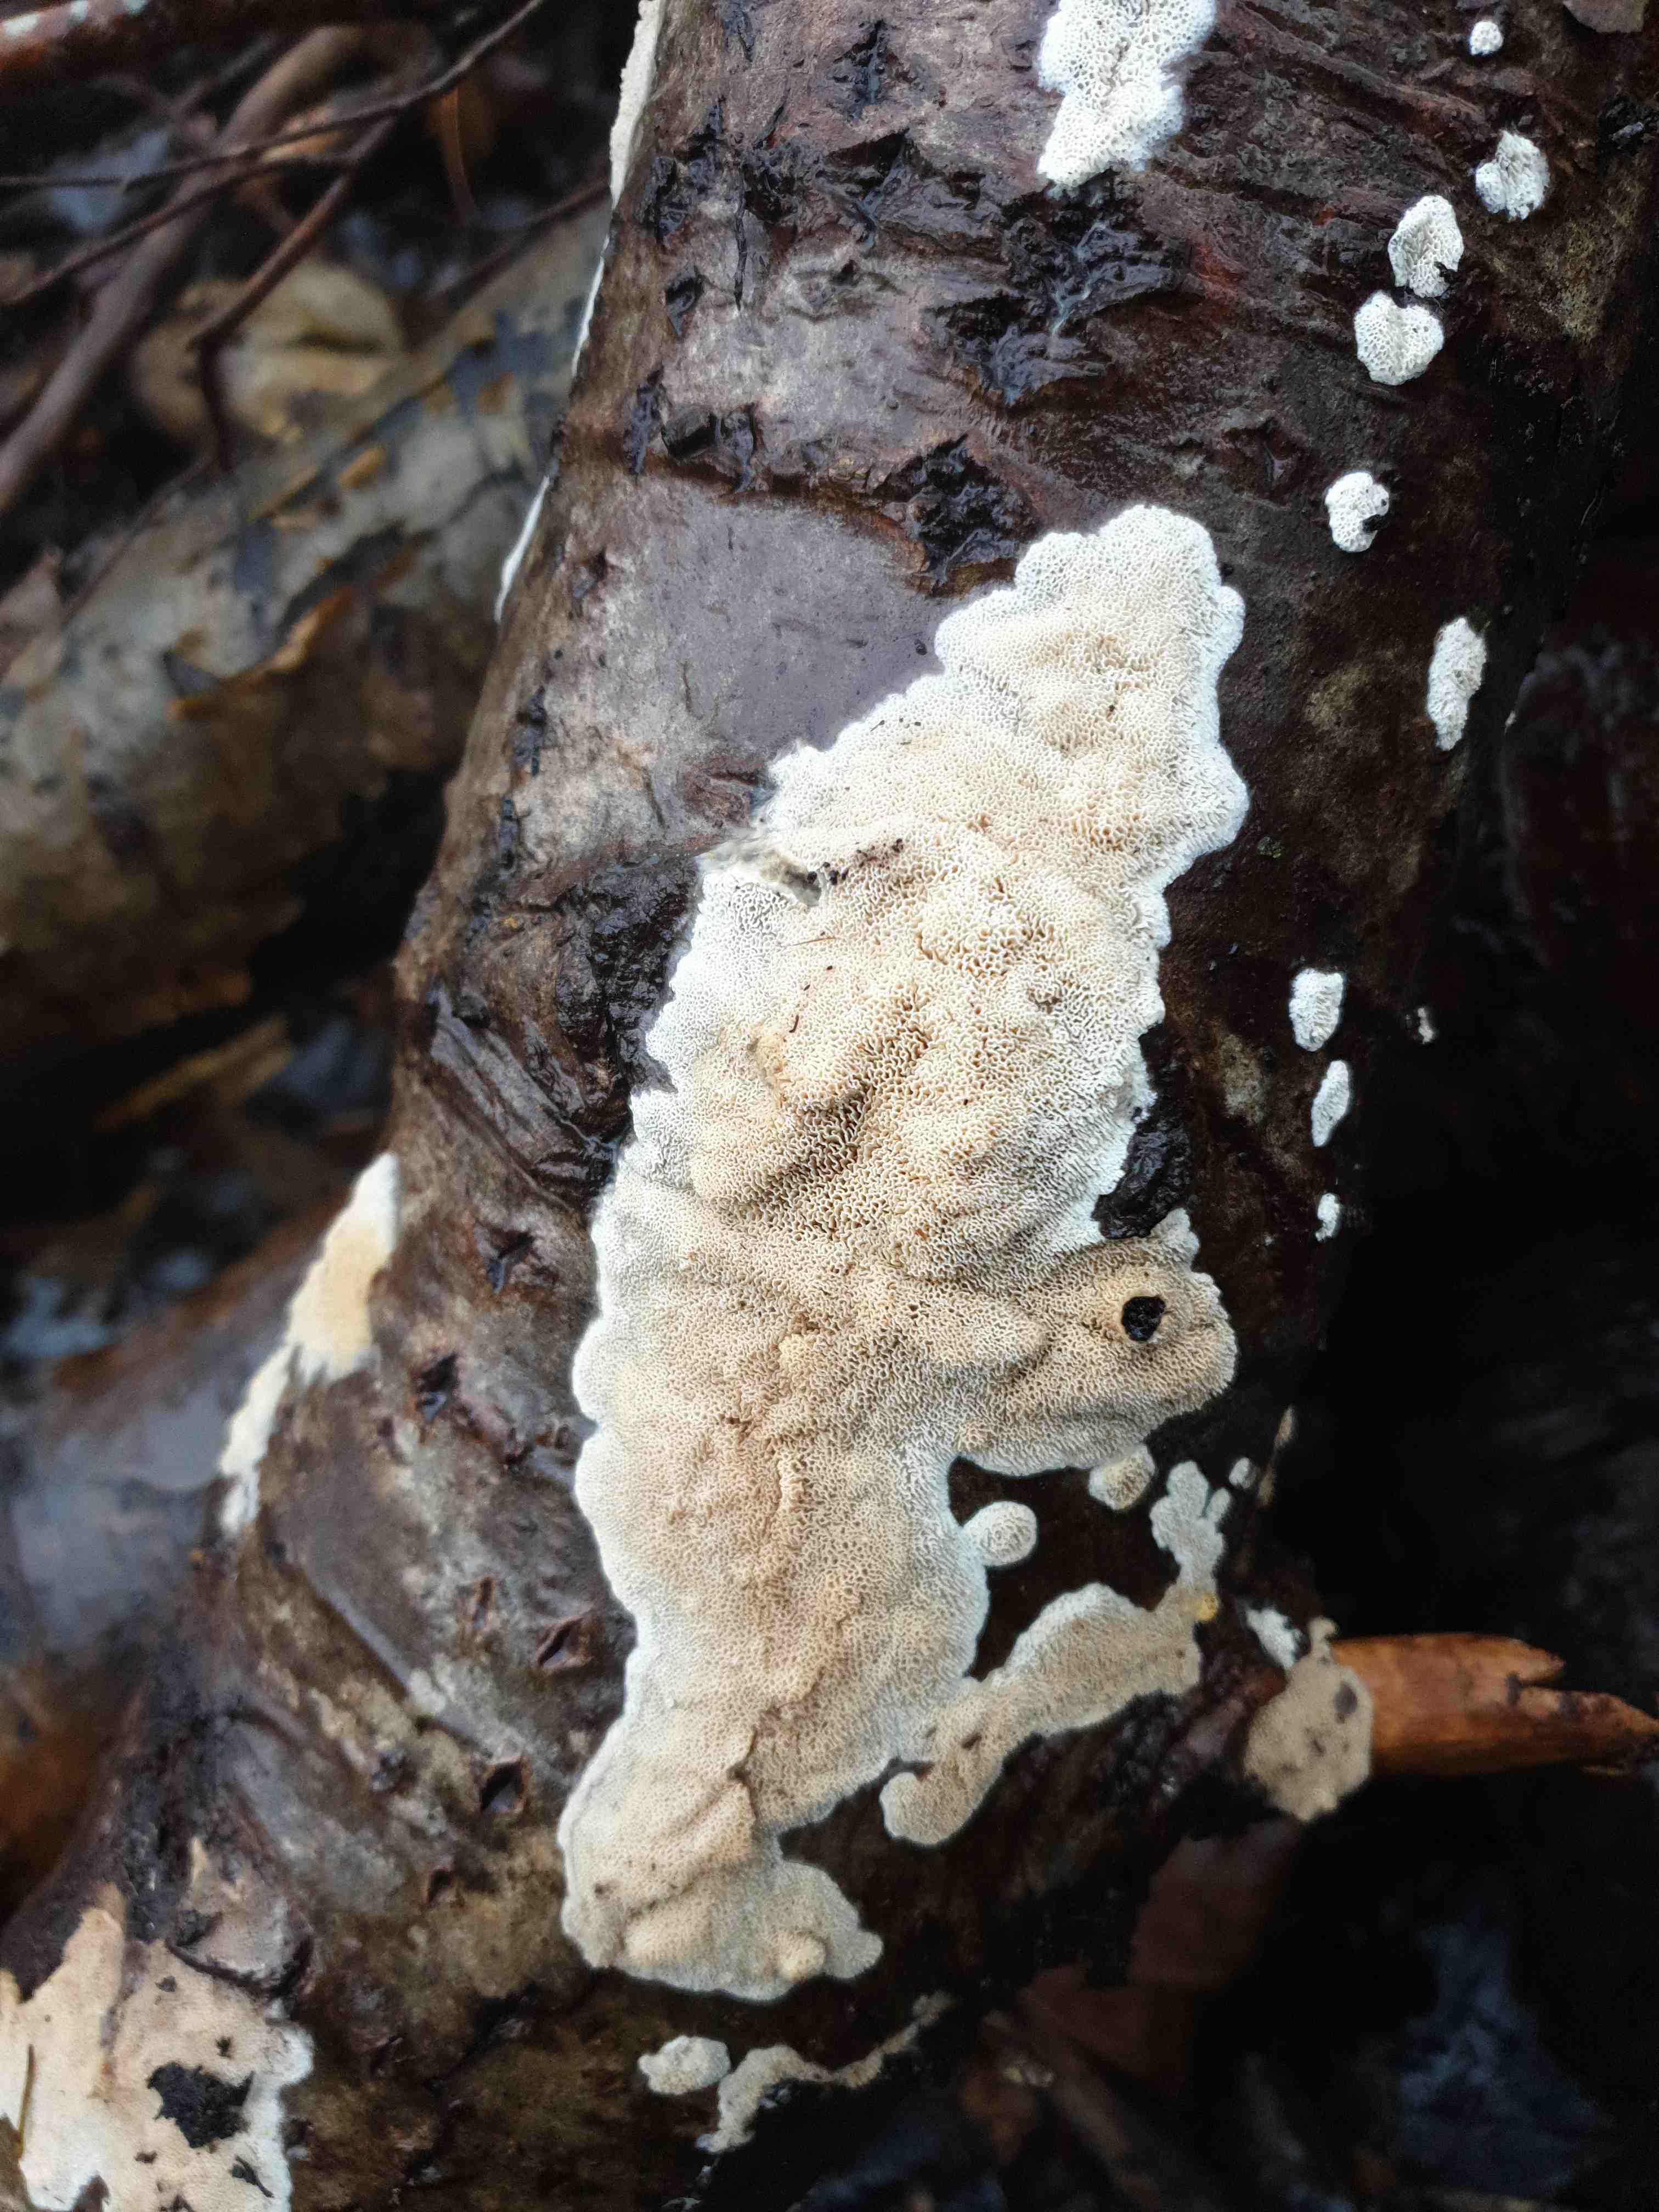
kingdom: Fungi
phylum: Basidiomycota
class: Agaricomycetes
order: Polyporales
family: Cerrenaceae
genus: Raduliporus
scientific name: Raduliporus aneirinus
